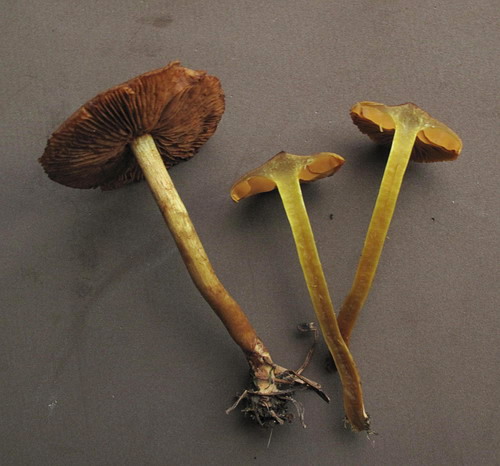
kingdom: Fungi
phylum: Basidiomycota
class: Agaricomycetes
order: Agaricales
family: Cortinariaceae
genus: Cortinarius
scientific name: Cortinarius cinnamomeus
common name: kanel-slørhat
